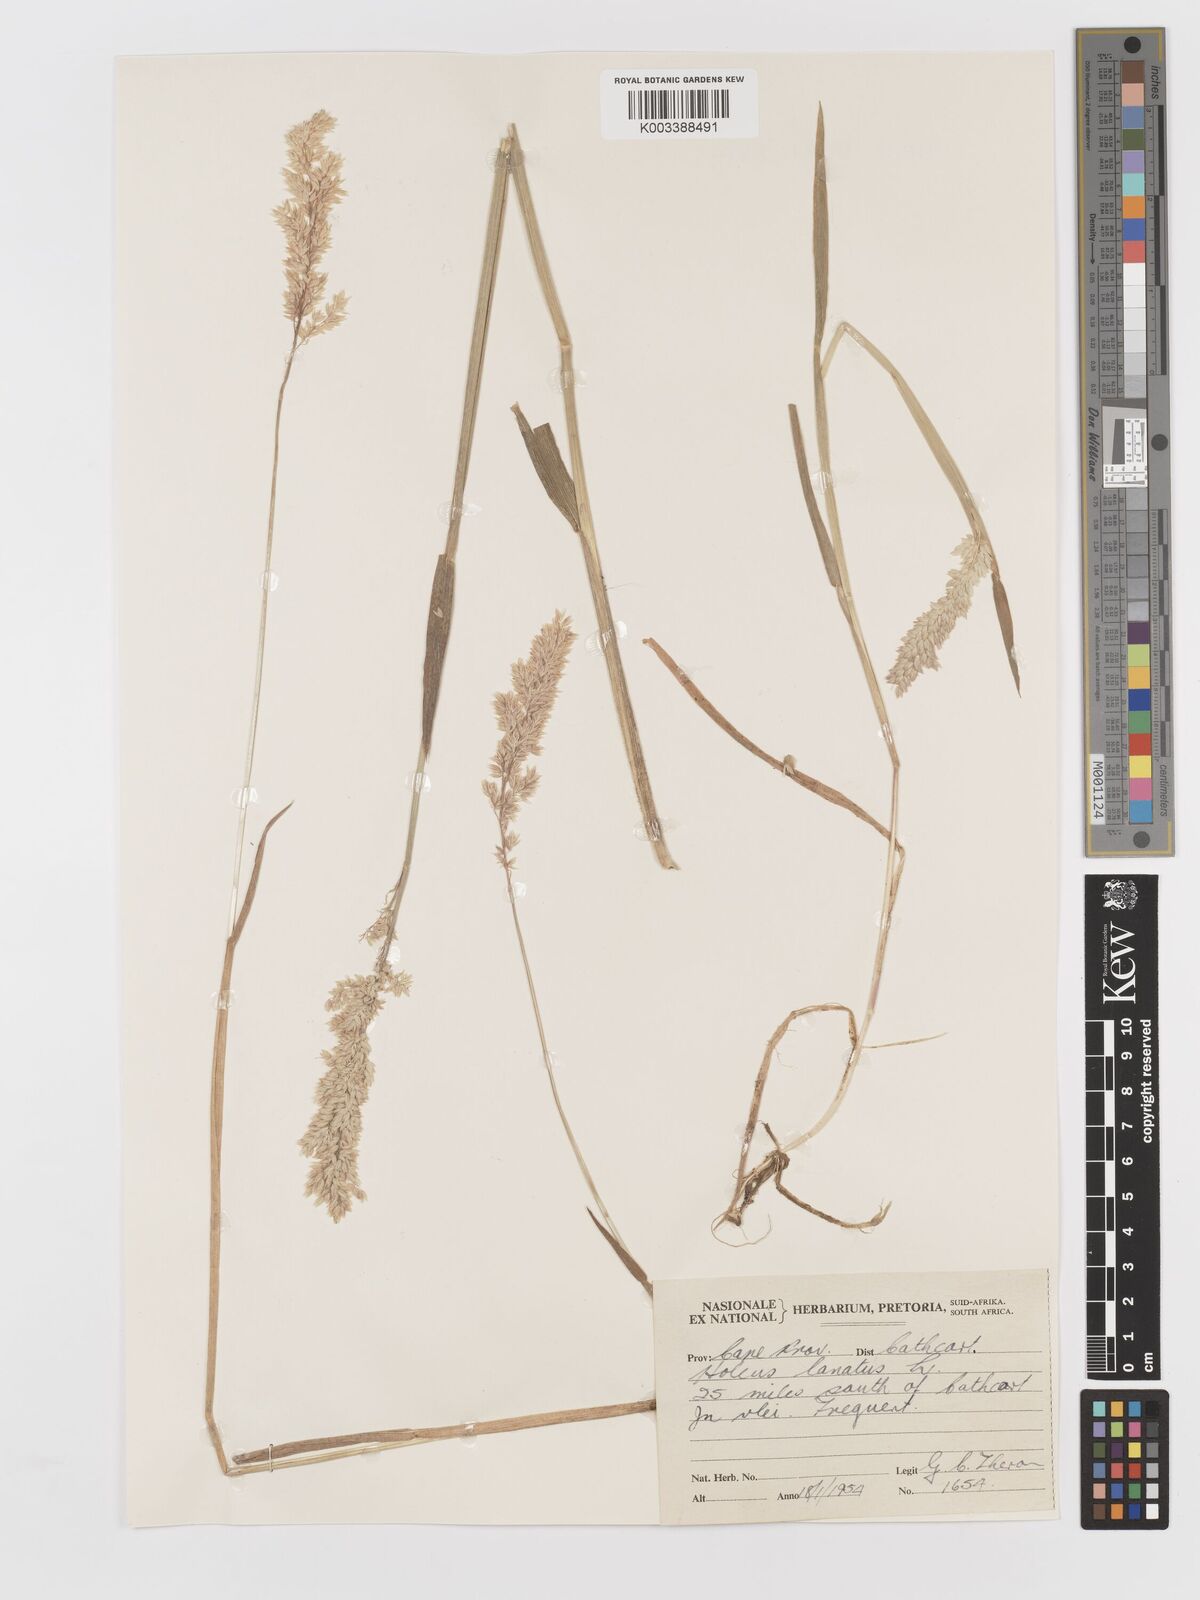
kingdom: Plantae
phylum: Tracheophyta
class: Liliopsida
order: Poales
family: Poaceae
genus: Holcus
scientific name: Holcus lanatus
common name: Yorkshire-fog
